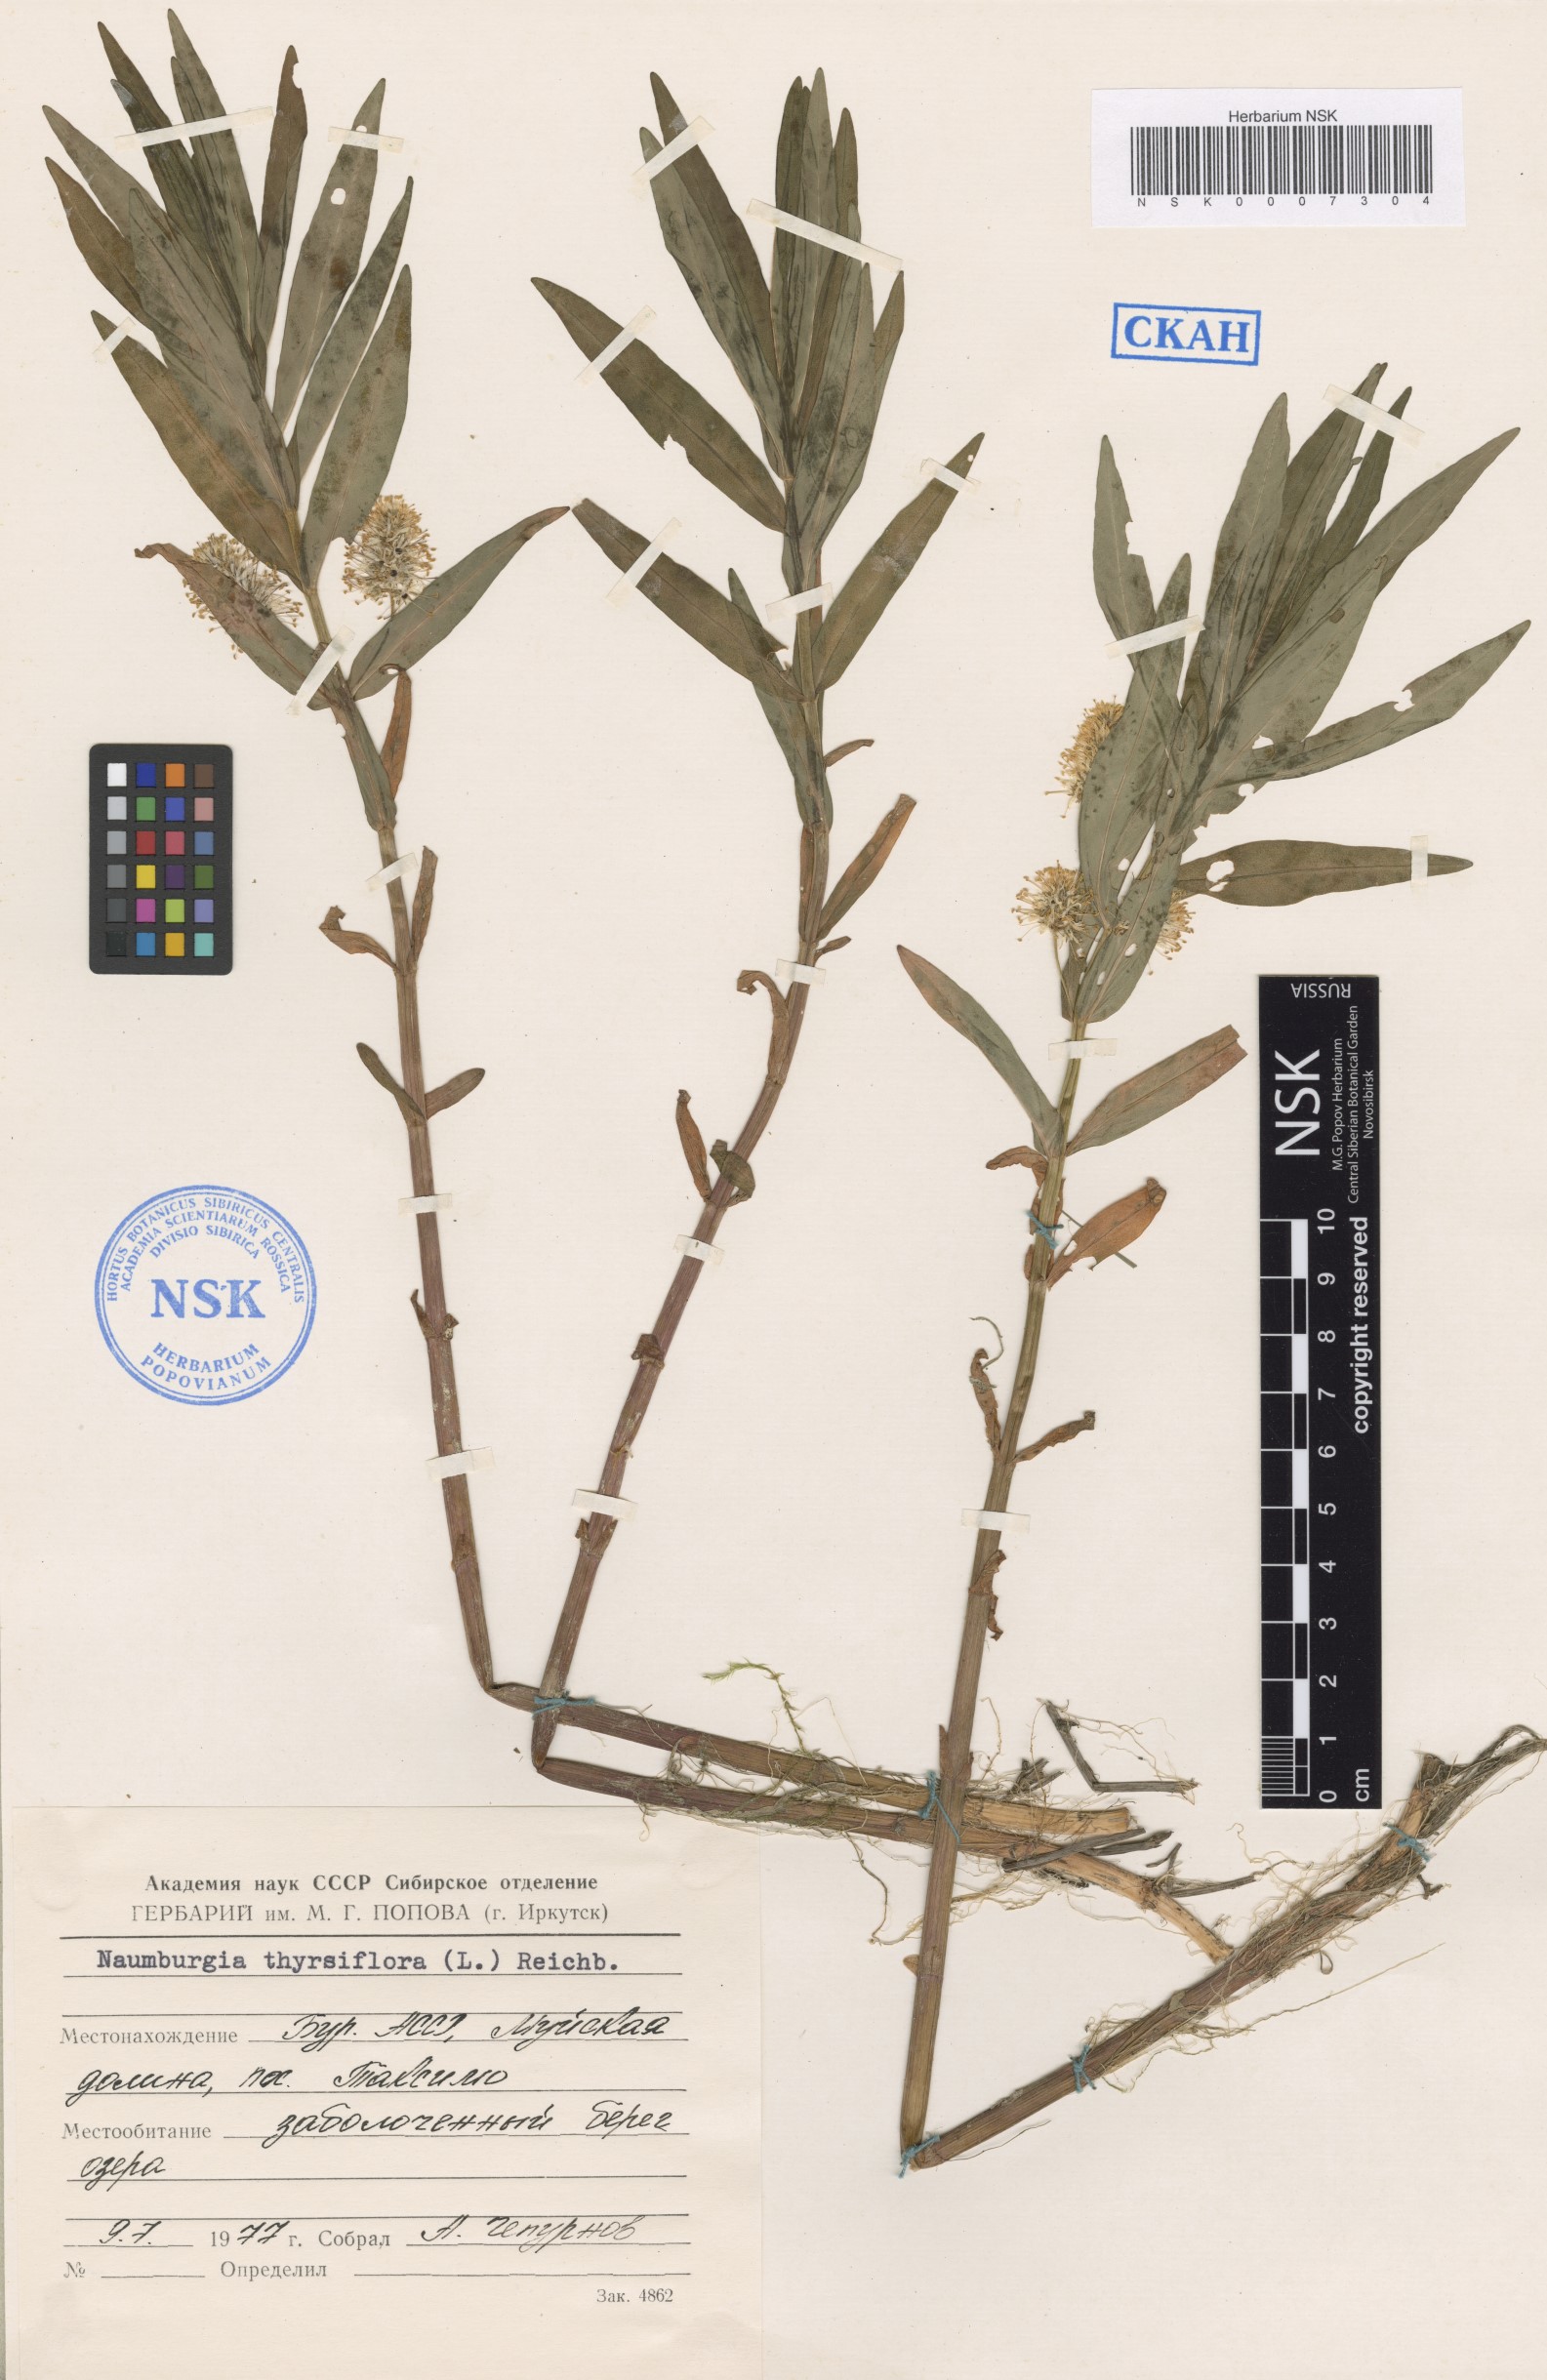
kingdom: Plantae
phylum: Tracheophyta
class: Magnoliopsida
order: Ericales
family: Primulaceae
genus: Lysimachia
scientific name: Lysimachia thyrsiflora
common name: Tufted loosestrife
